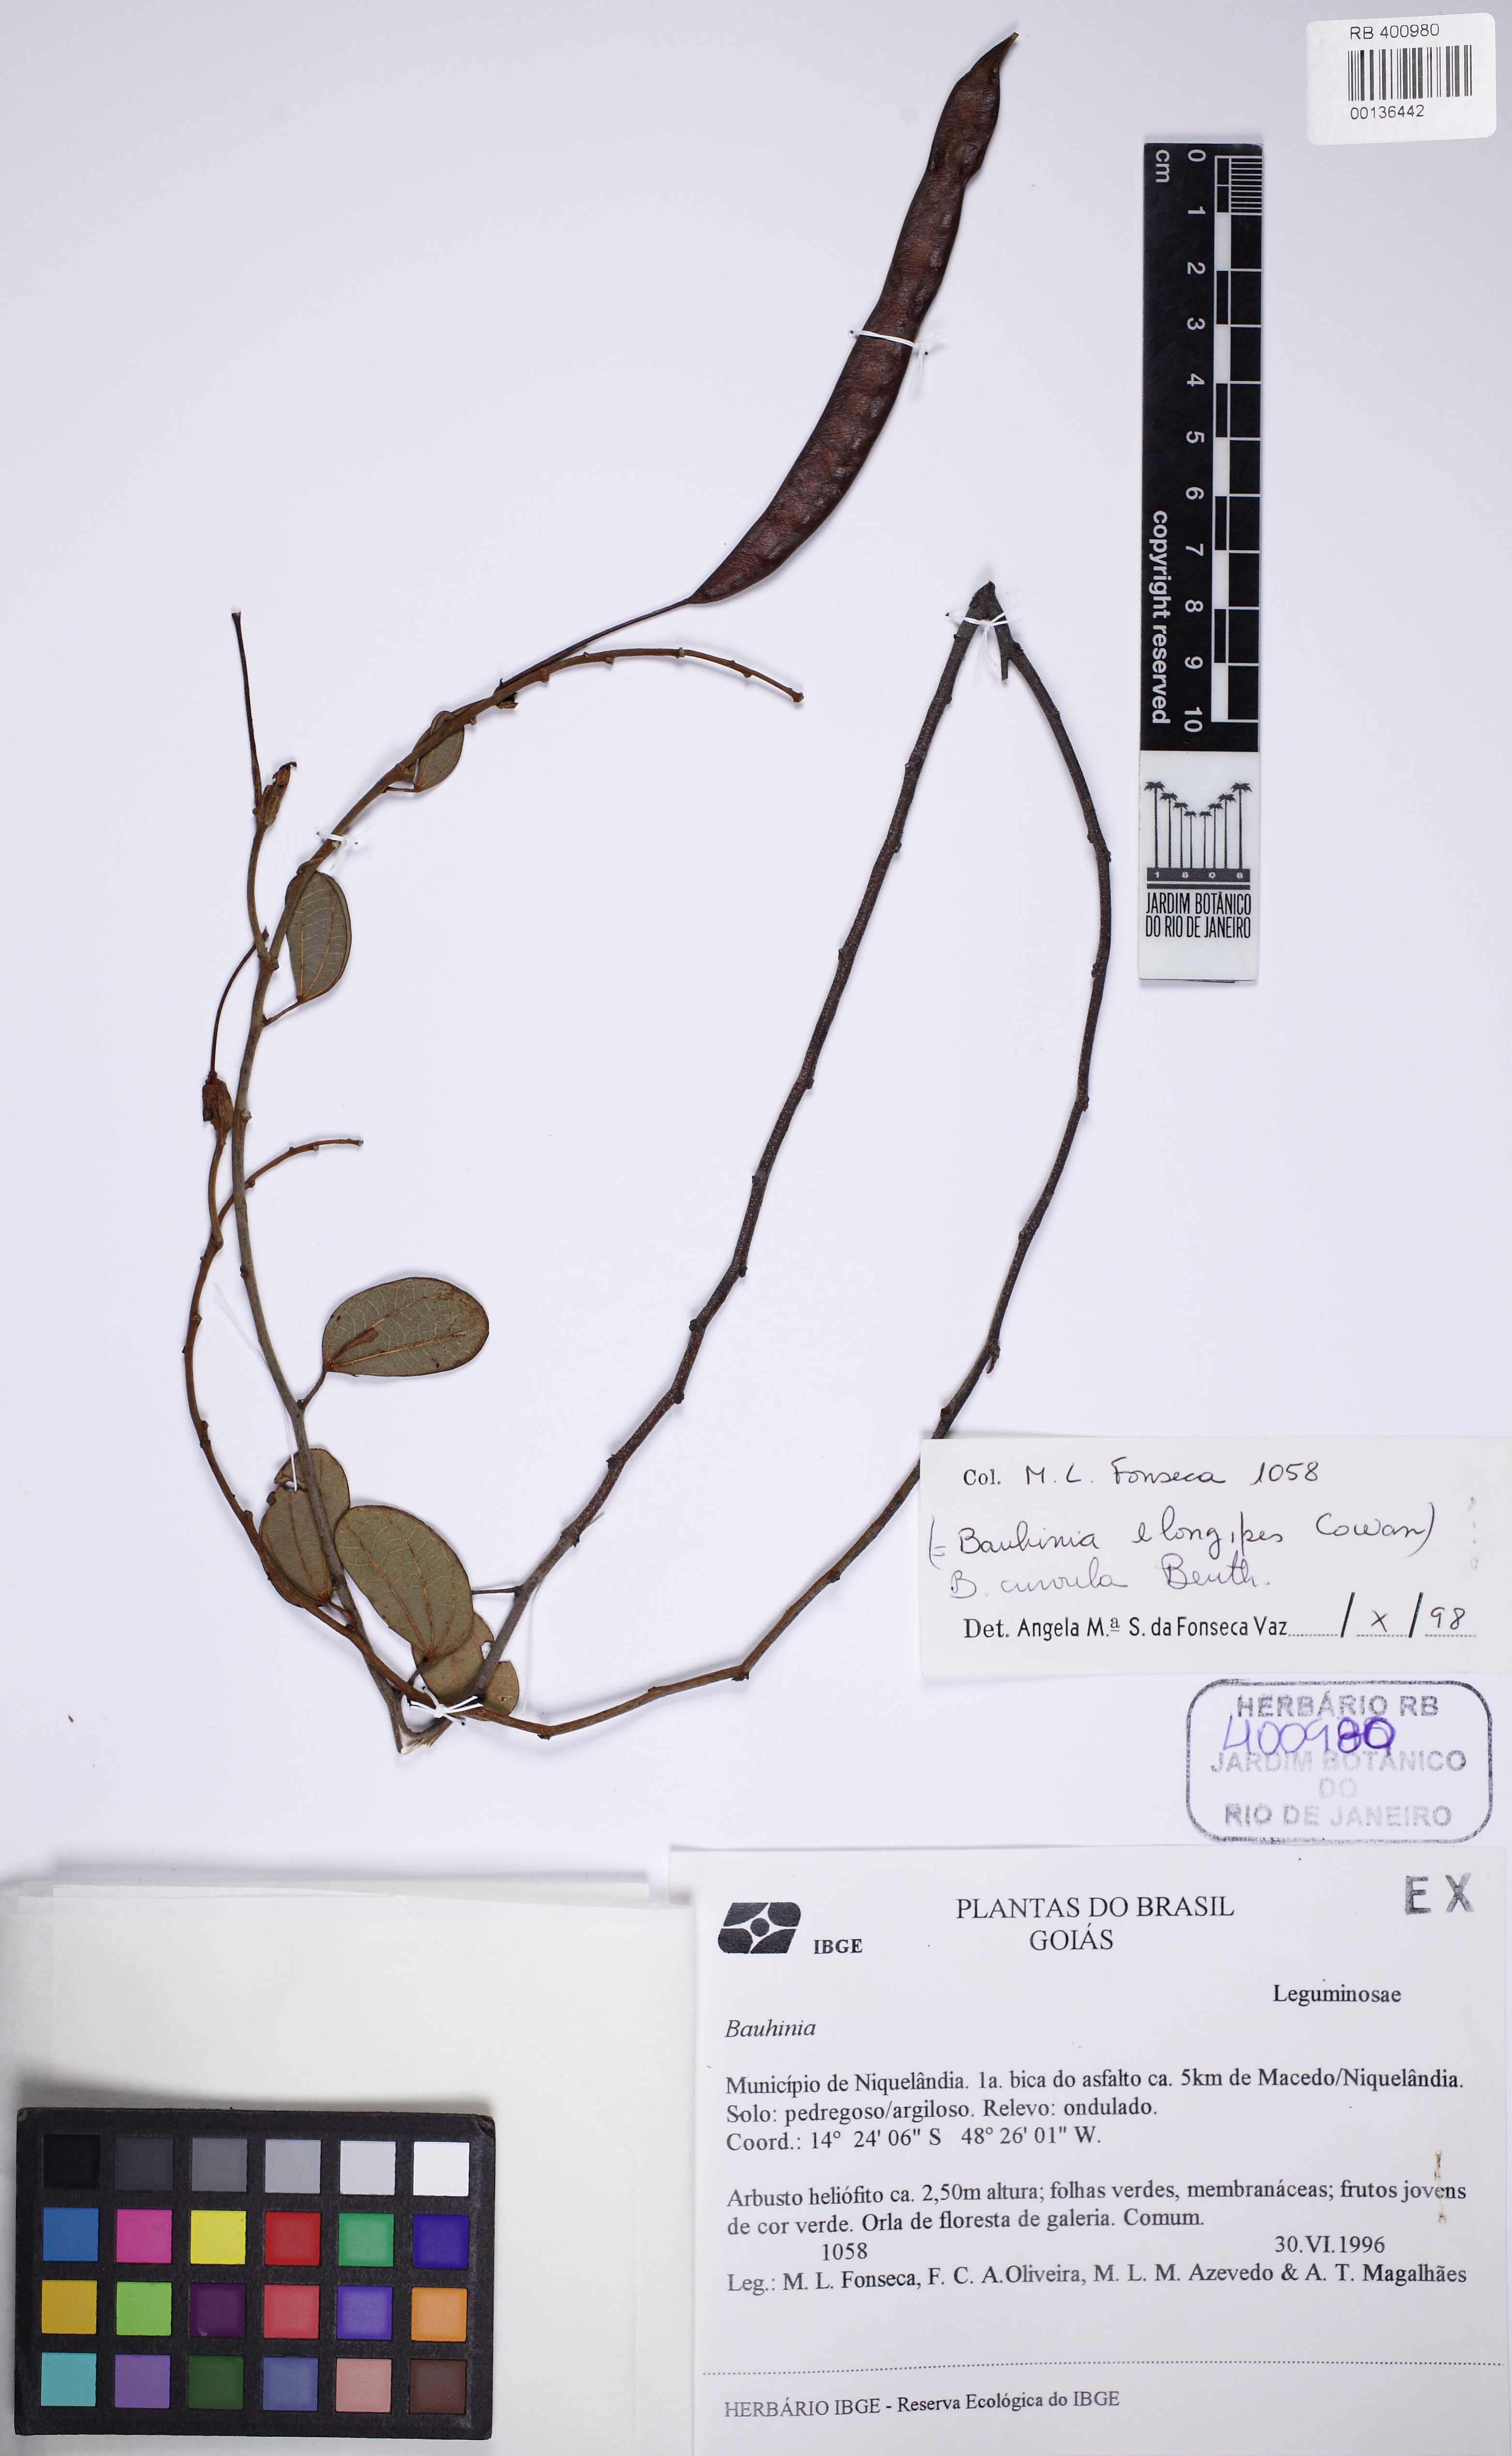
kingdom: Plantae
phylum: Tracheophyta
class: Magnoliopsida
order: Fabales
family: Fabaceae
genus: Bauhinia
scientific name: Bauhinia cupulata
